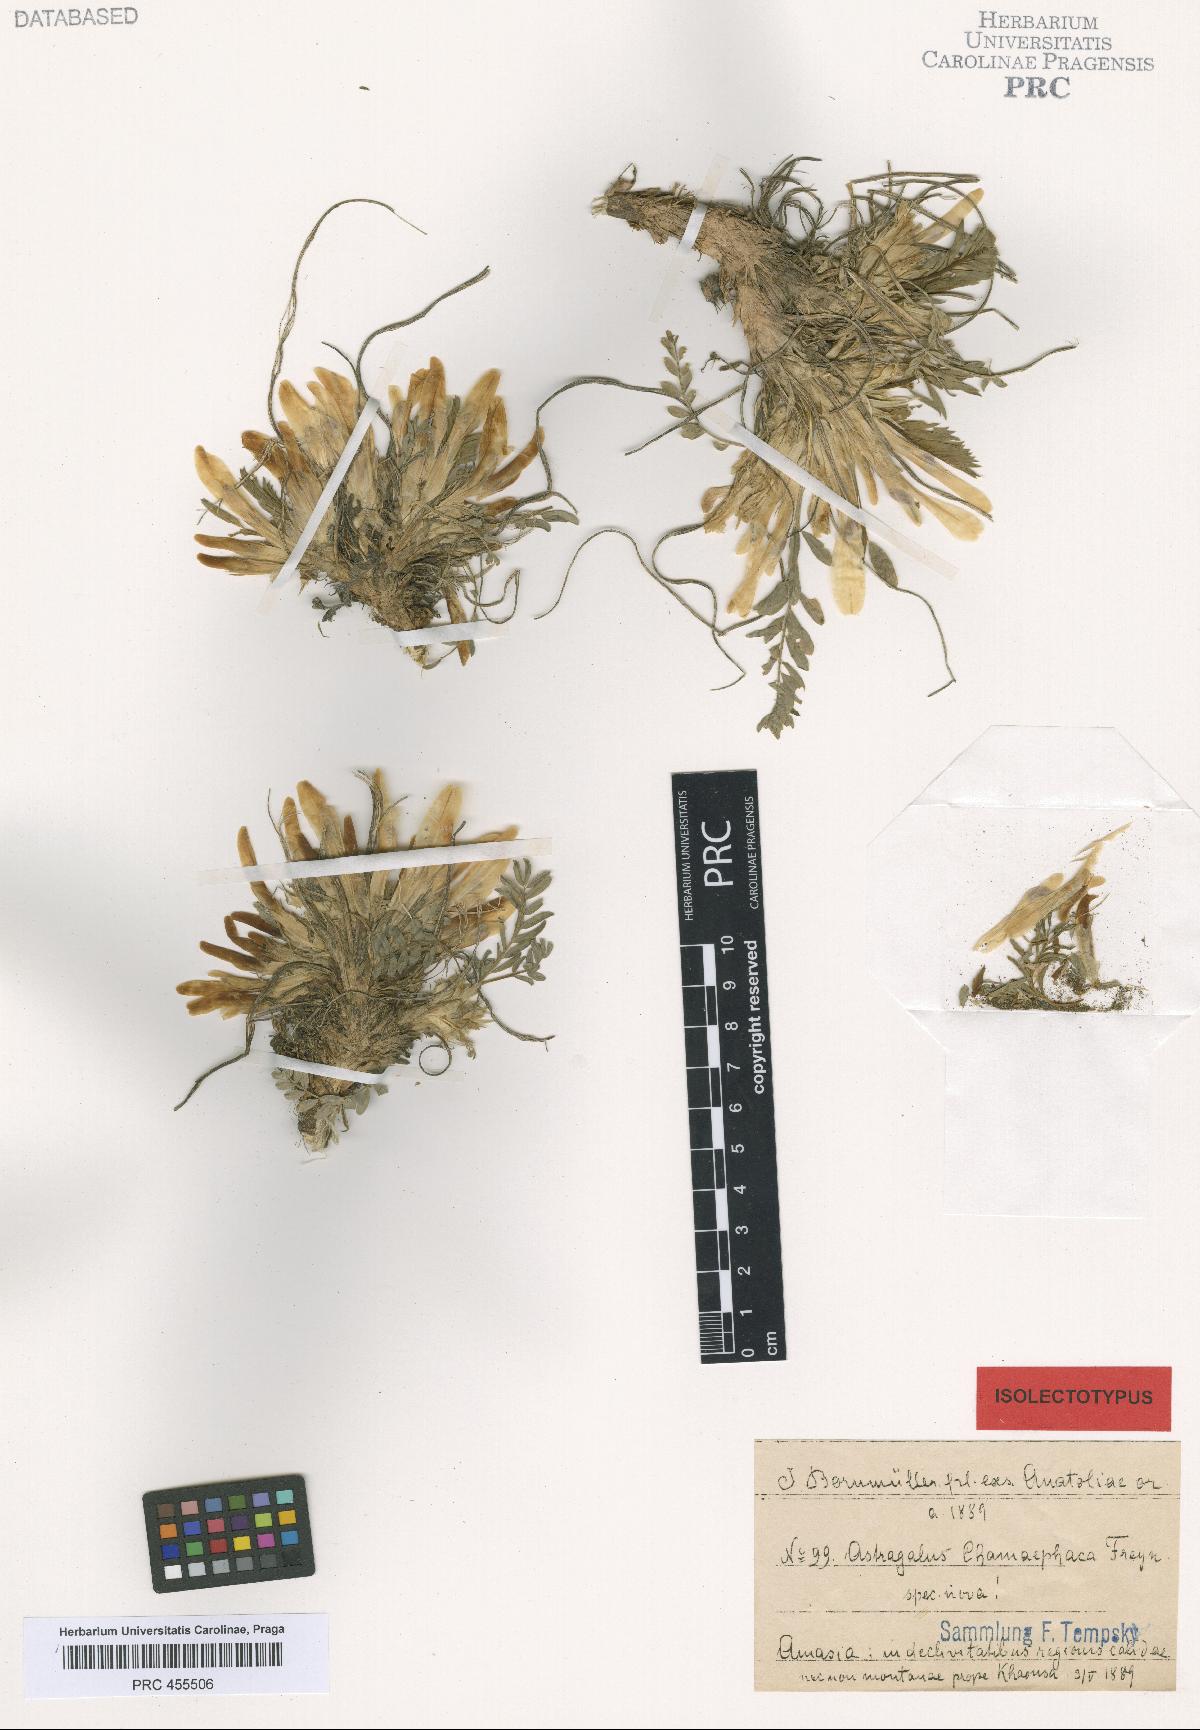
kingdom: Plantae
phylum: Tracheophyta
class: Magnoliopsida
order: Fabales
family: Fabaceae
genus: Astragalus
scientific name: Astragalus chamaephaca
